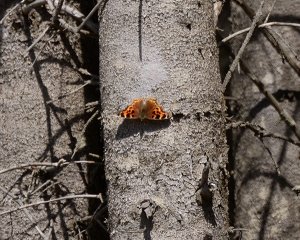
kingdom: Animalia
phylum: Arthropoda
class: Insecta
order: Lepidoptera
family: Nymphalidae
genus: Polygonia
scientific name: Polygonia vaualbum
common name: Compton Tortoiseshell
